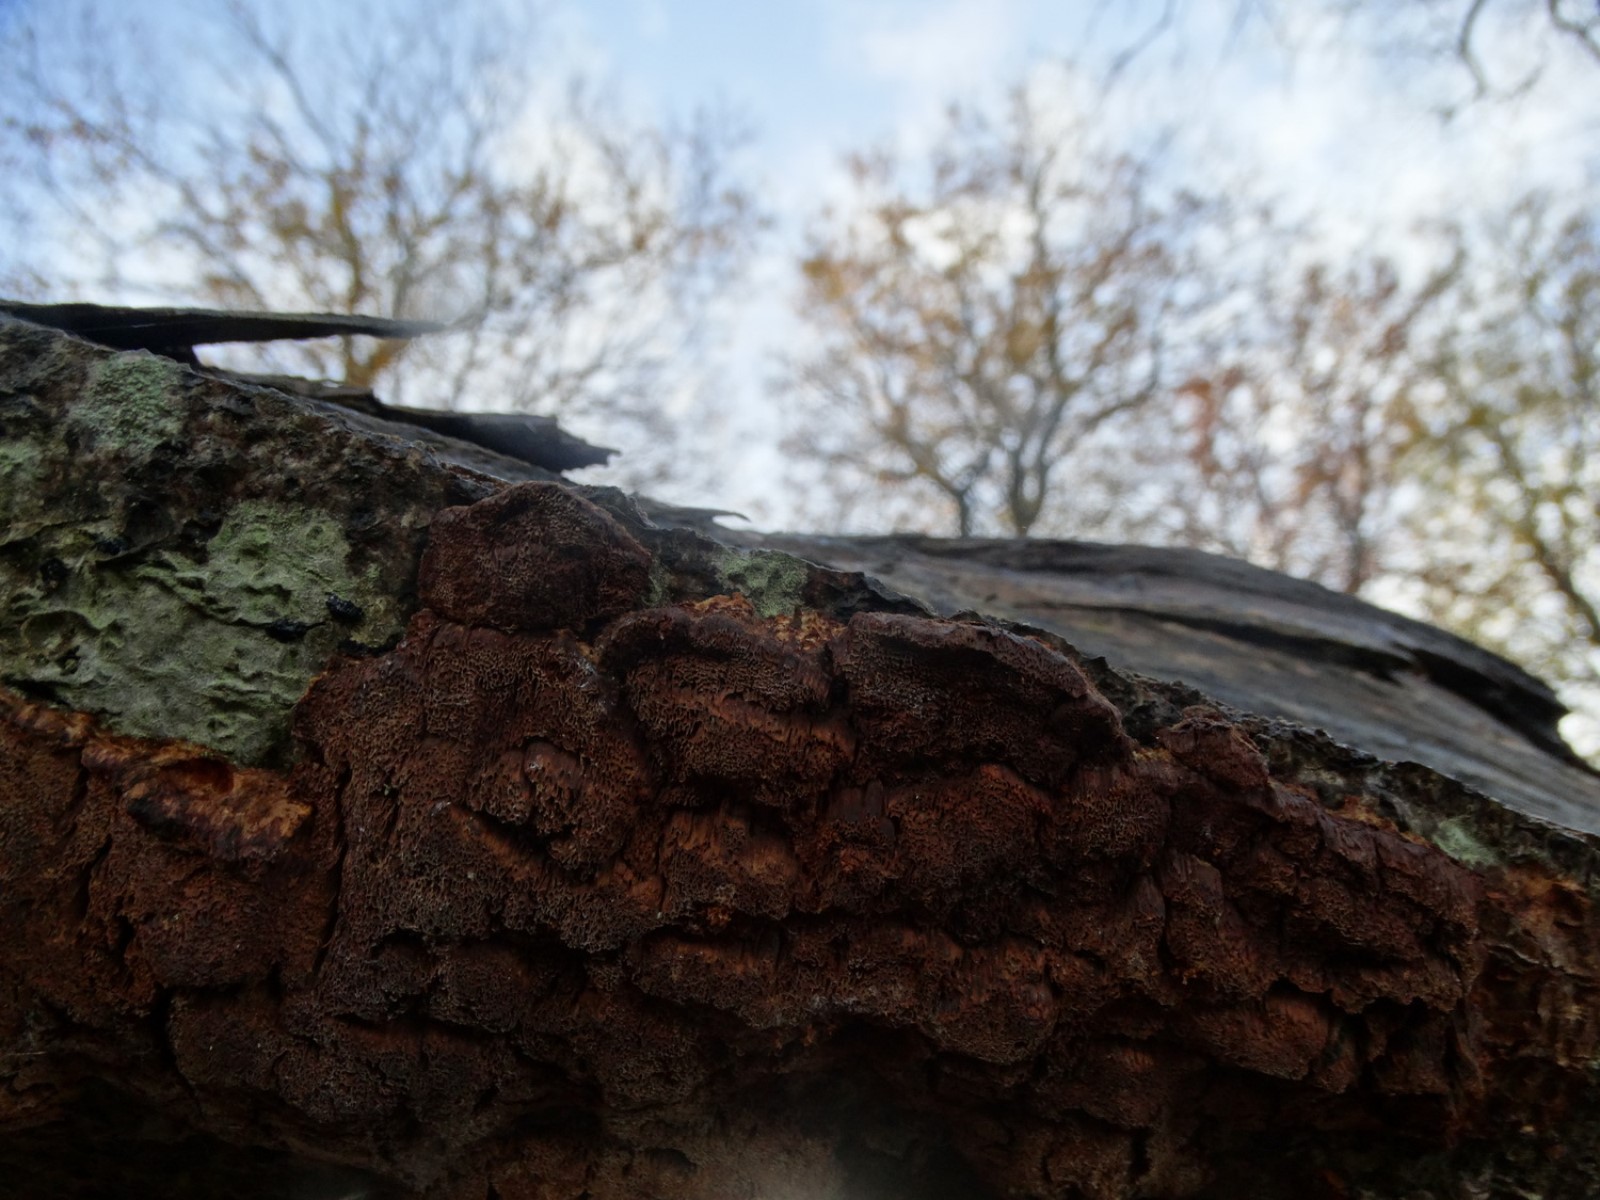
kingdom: Fungi
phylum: Basidiomycota
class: Agaricomycetes
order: Hymenochaetales
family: Hymenochaetaceae
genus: Mensularia
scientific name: Mensularia nodulosa
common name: bøge-spejlporesvamp
